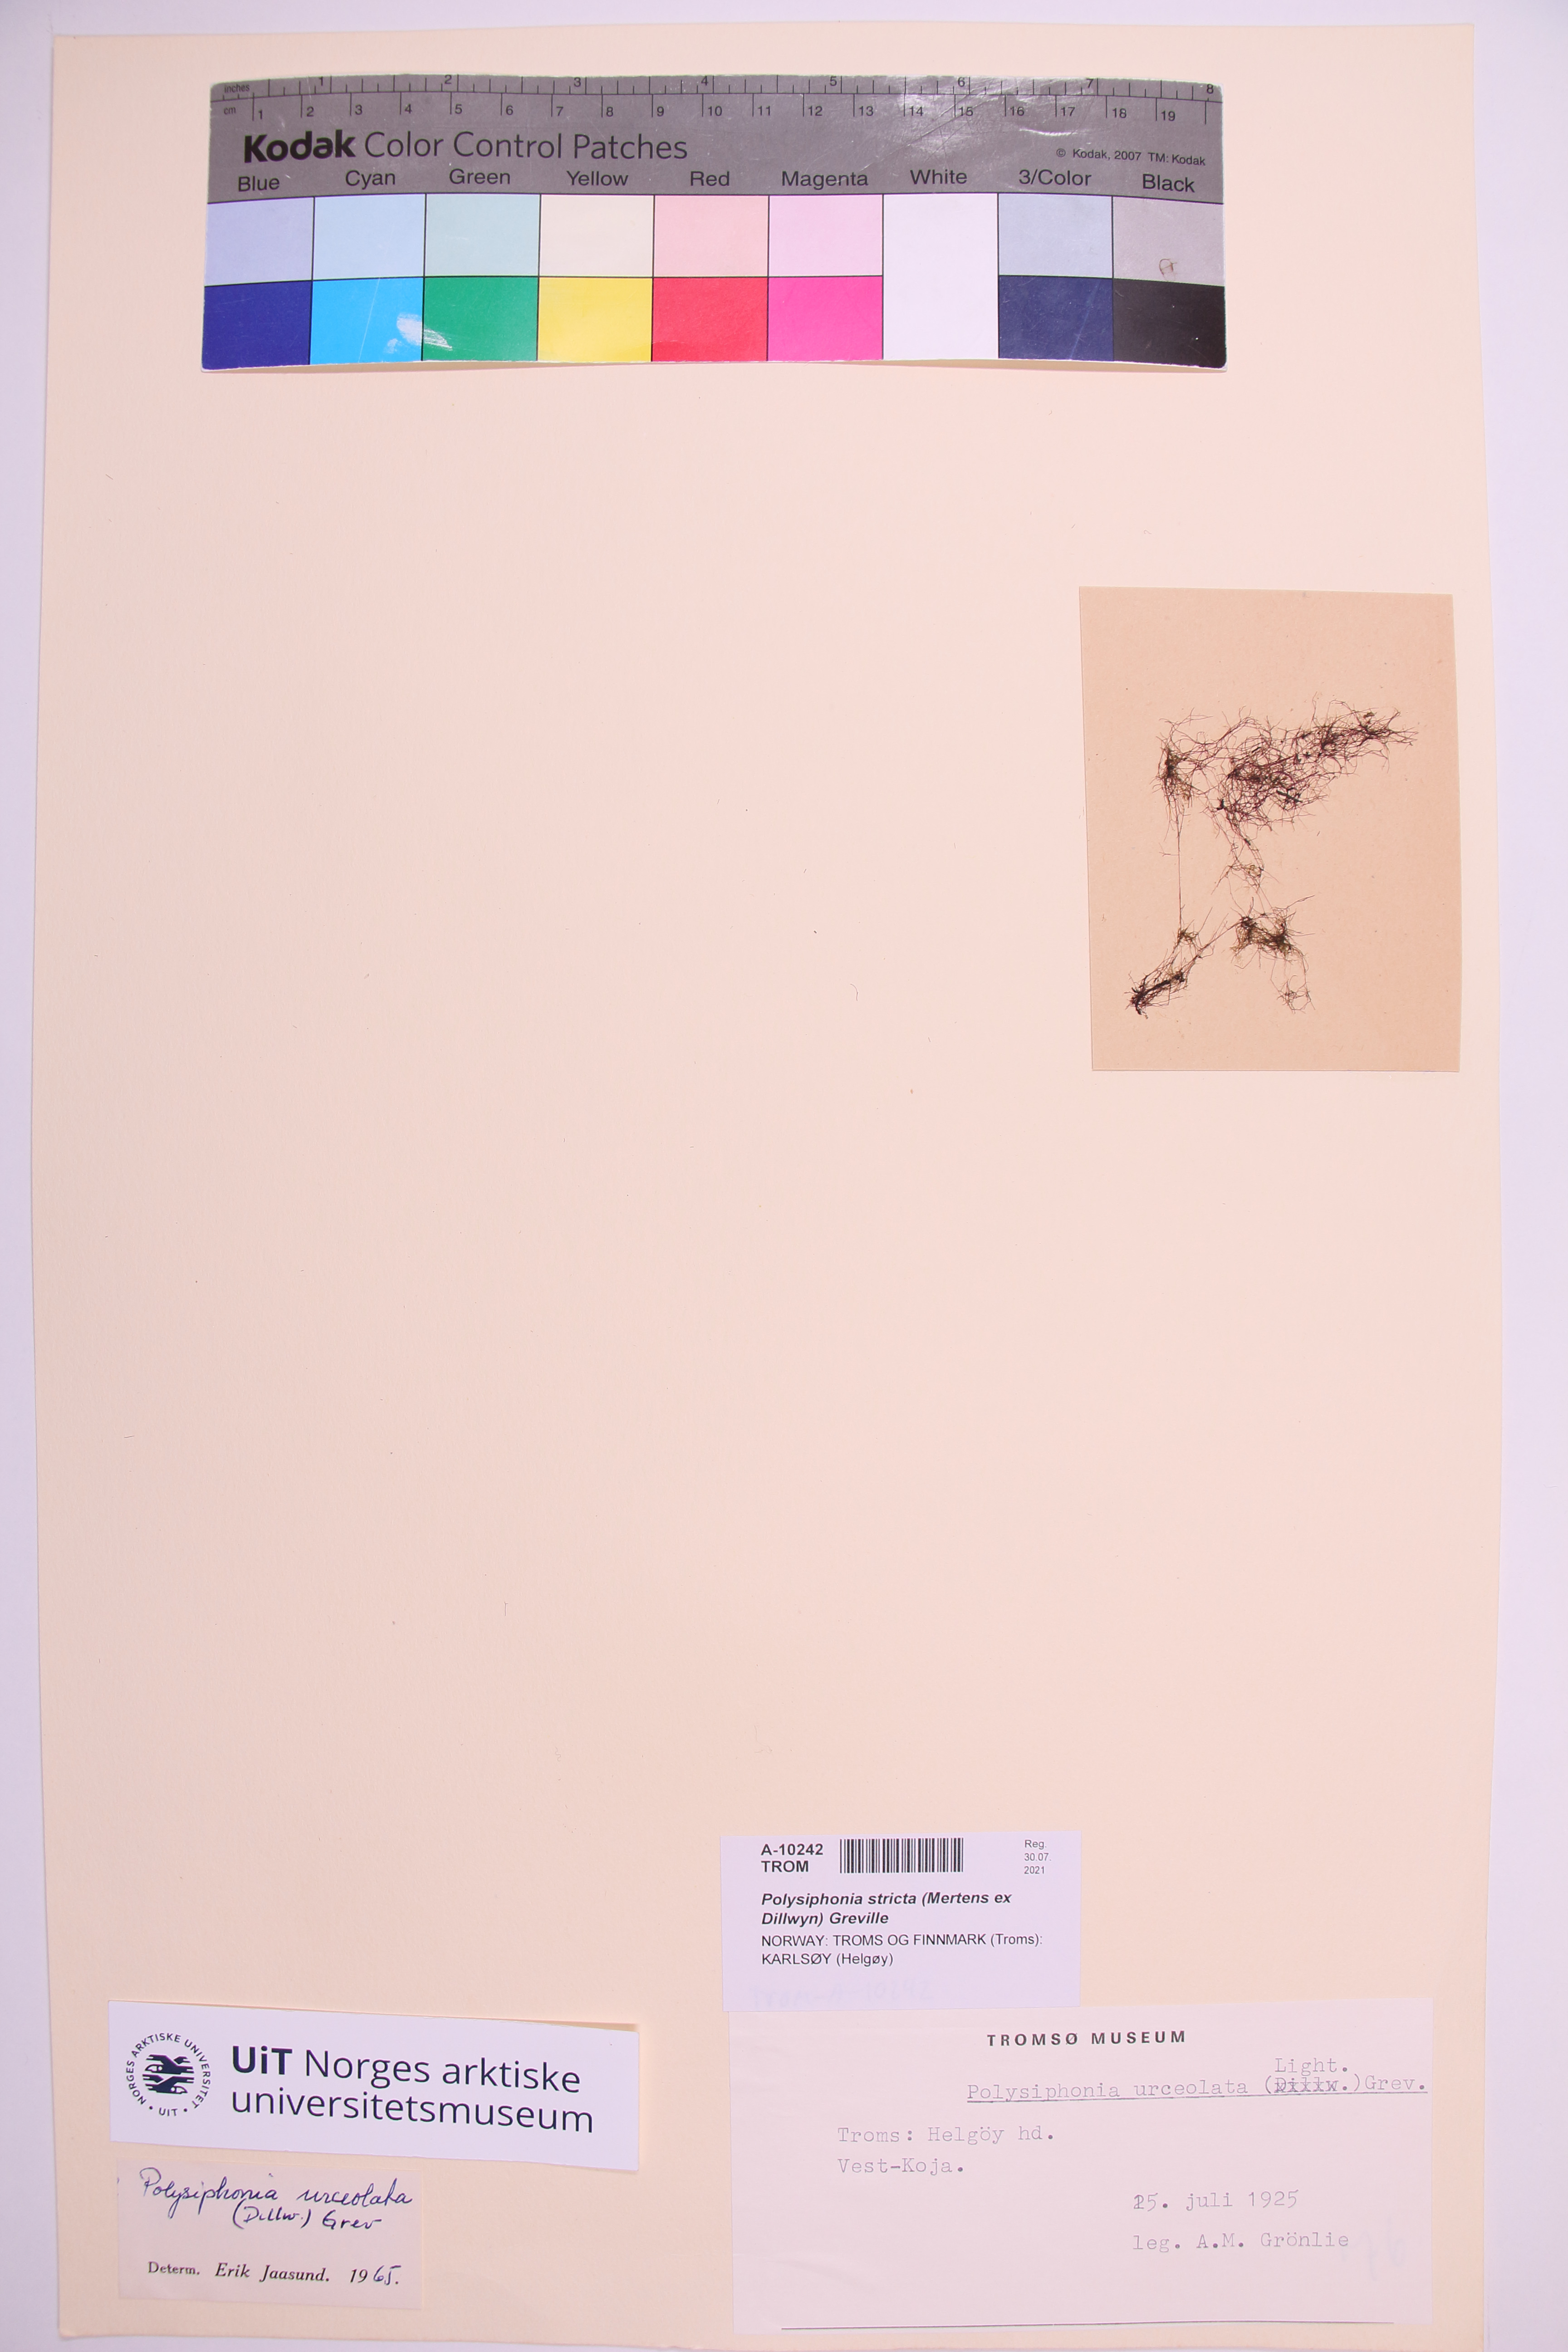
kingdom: Plantae
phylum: Rhodophyta
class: Florideophyceae
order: Ceramiales
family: Rhodomelaceae
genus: Polysiphonia
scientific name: Polysiphonia stricta
